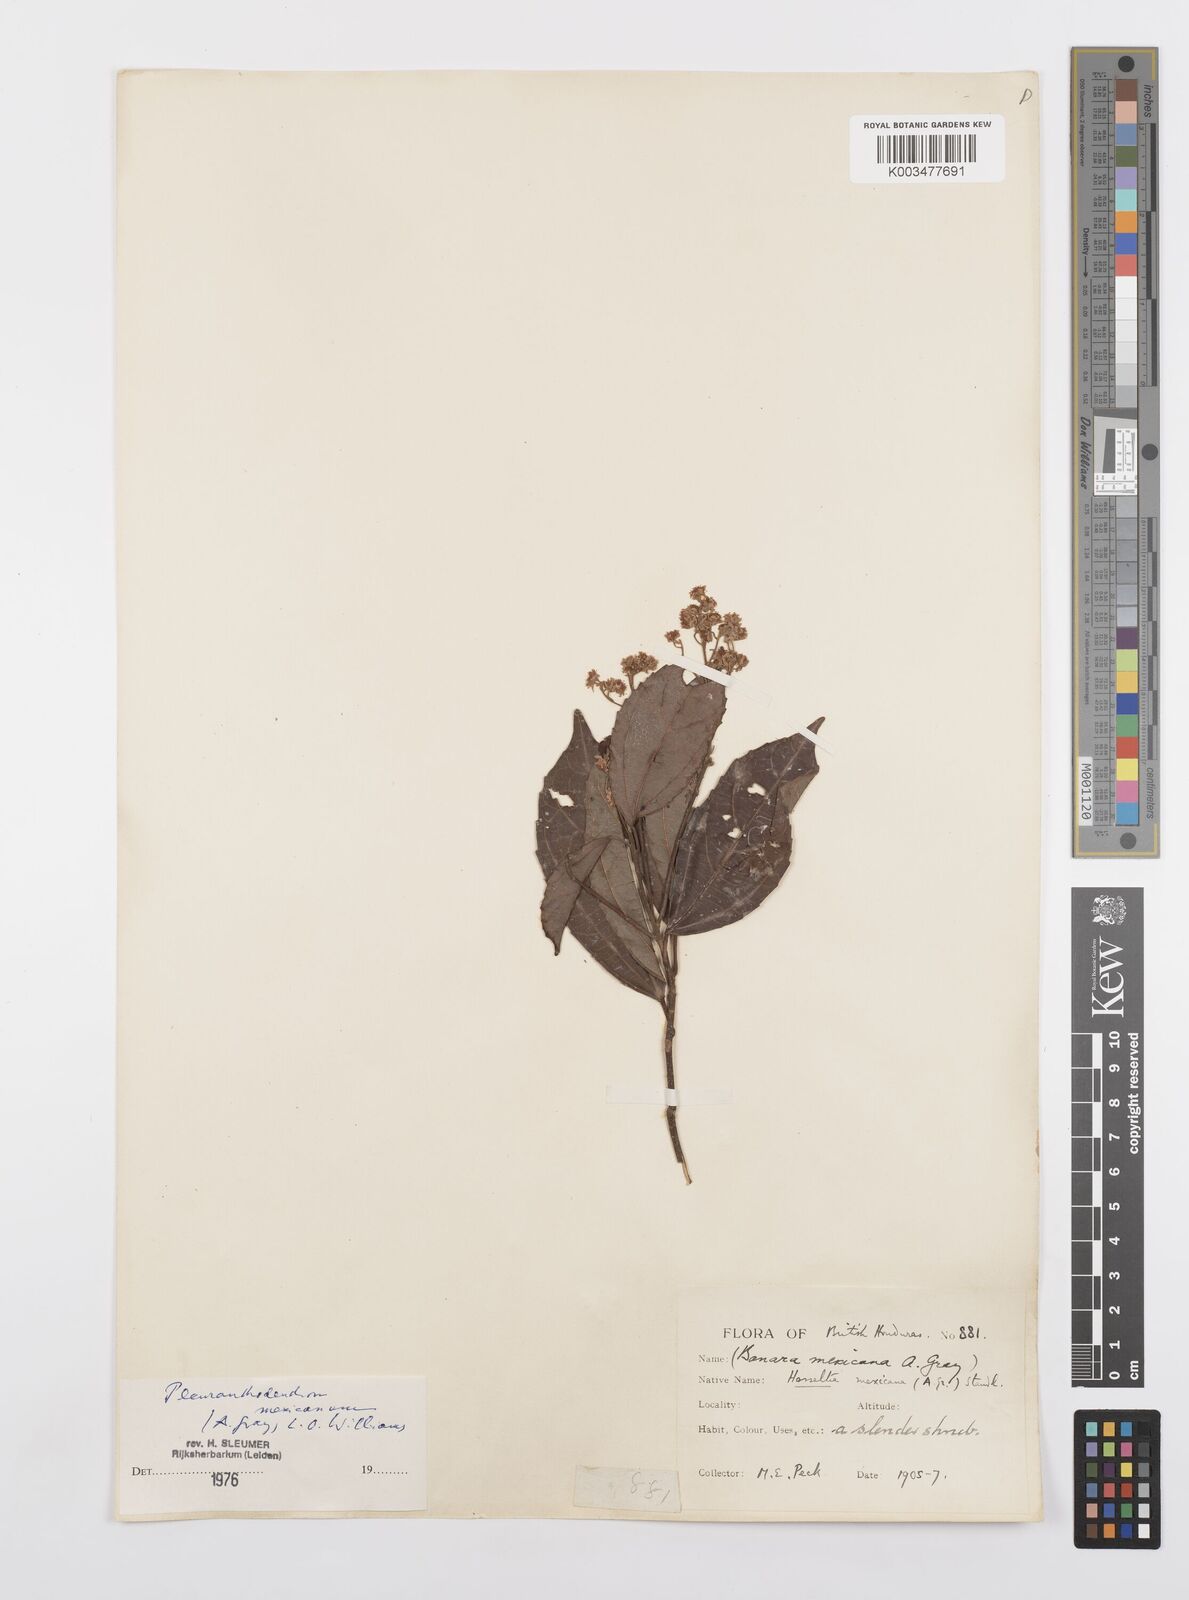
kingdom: Plantae
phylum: Tracheophyta
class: Magnoliopsida
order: Malpighiales
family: Salicaceae
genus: Pleuranthodendron
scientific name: Pleuranthodendron lindenii
